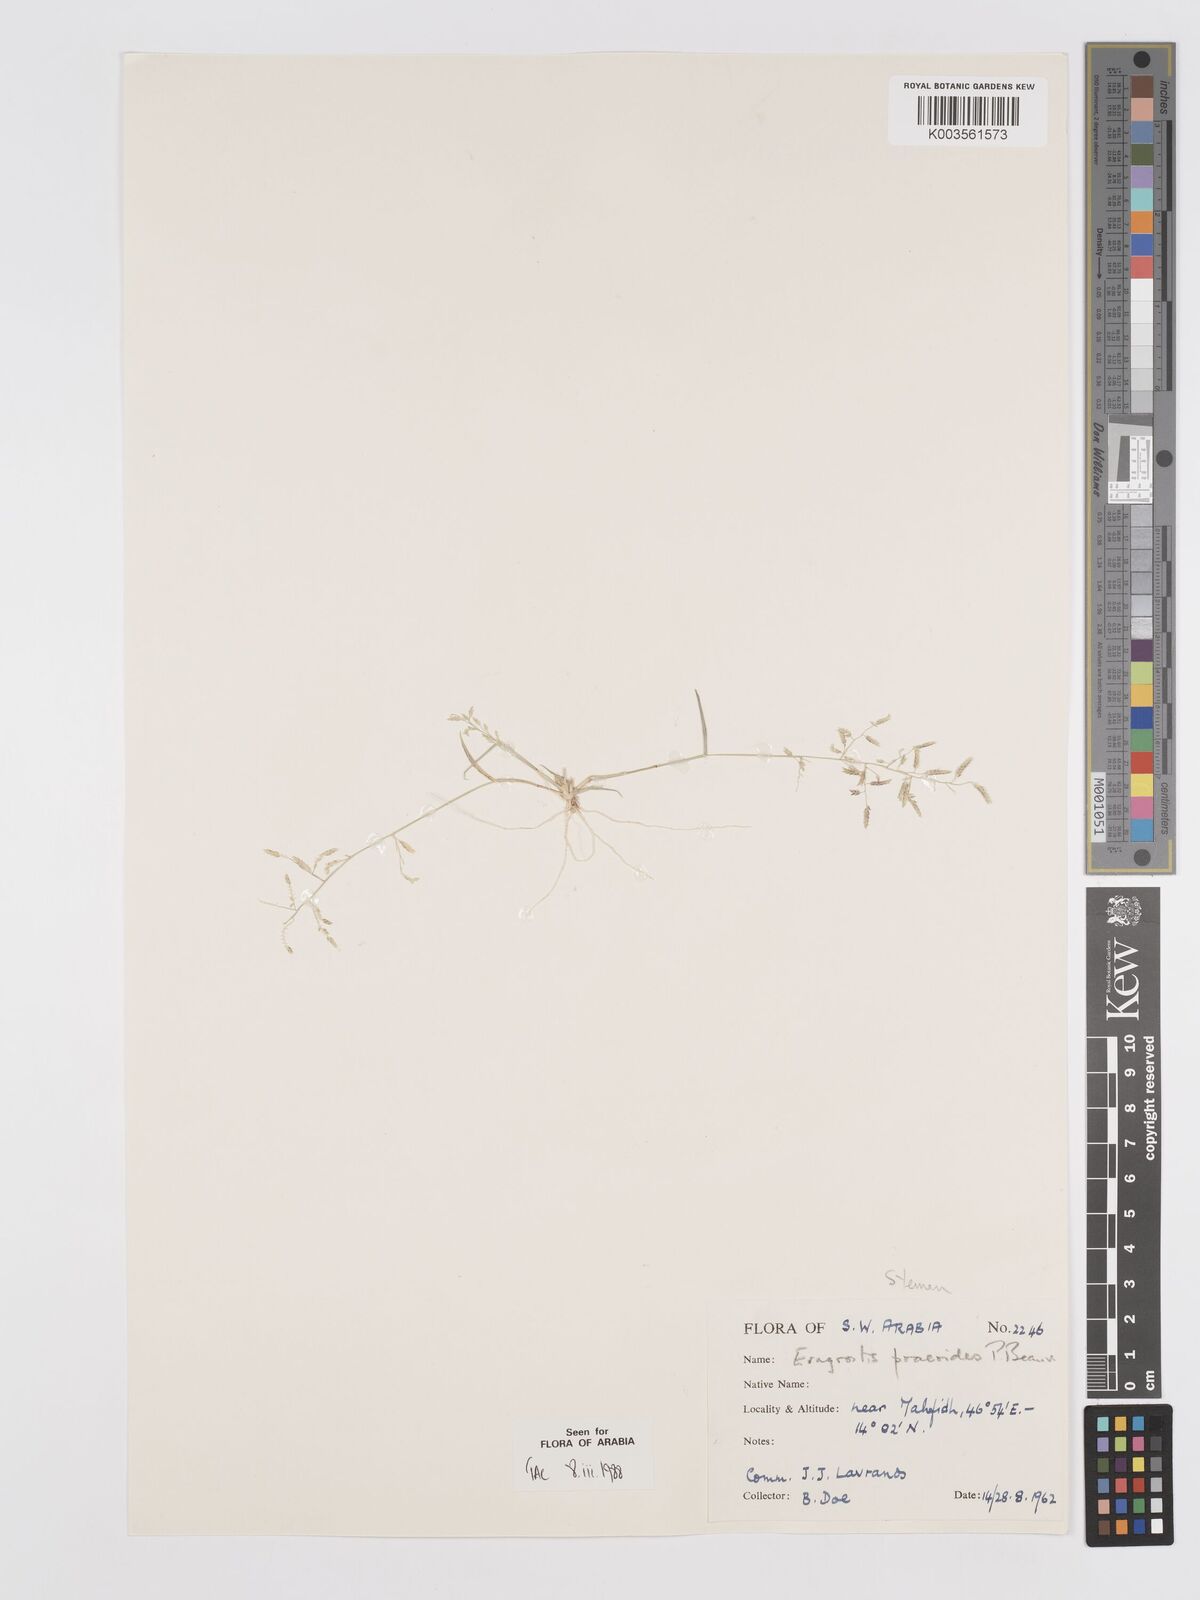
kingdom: Plantae
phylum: Tracheophyta
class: Liliopsida
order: Poales
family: Poaceae
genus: Eragrostis
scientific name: Eragrostis minor
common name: Small love-grass
